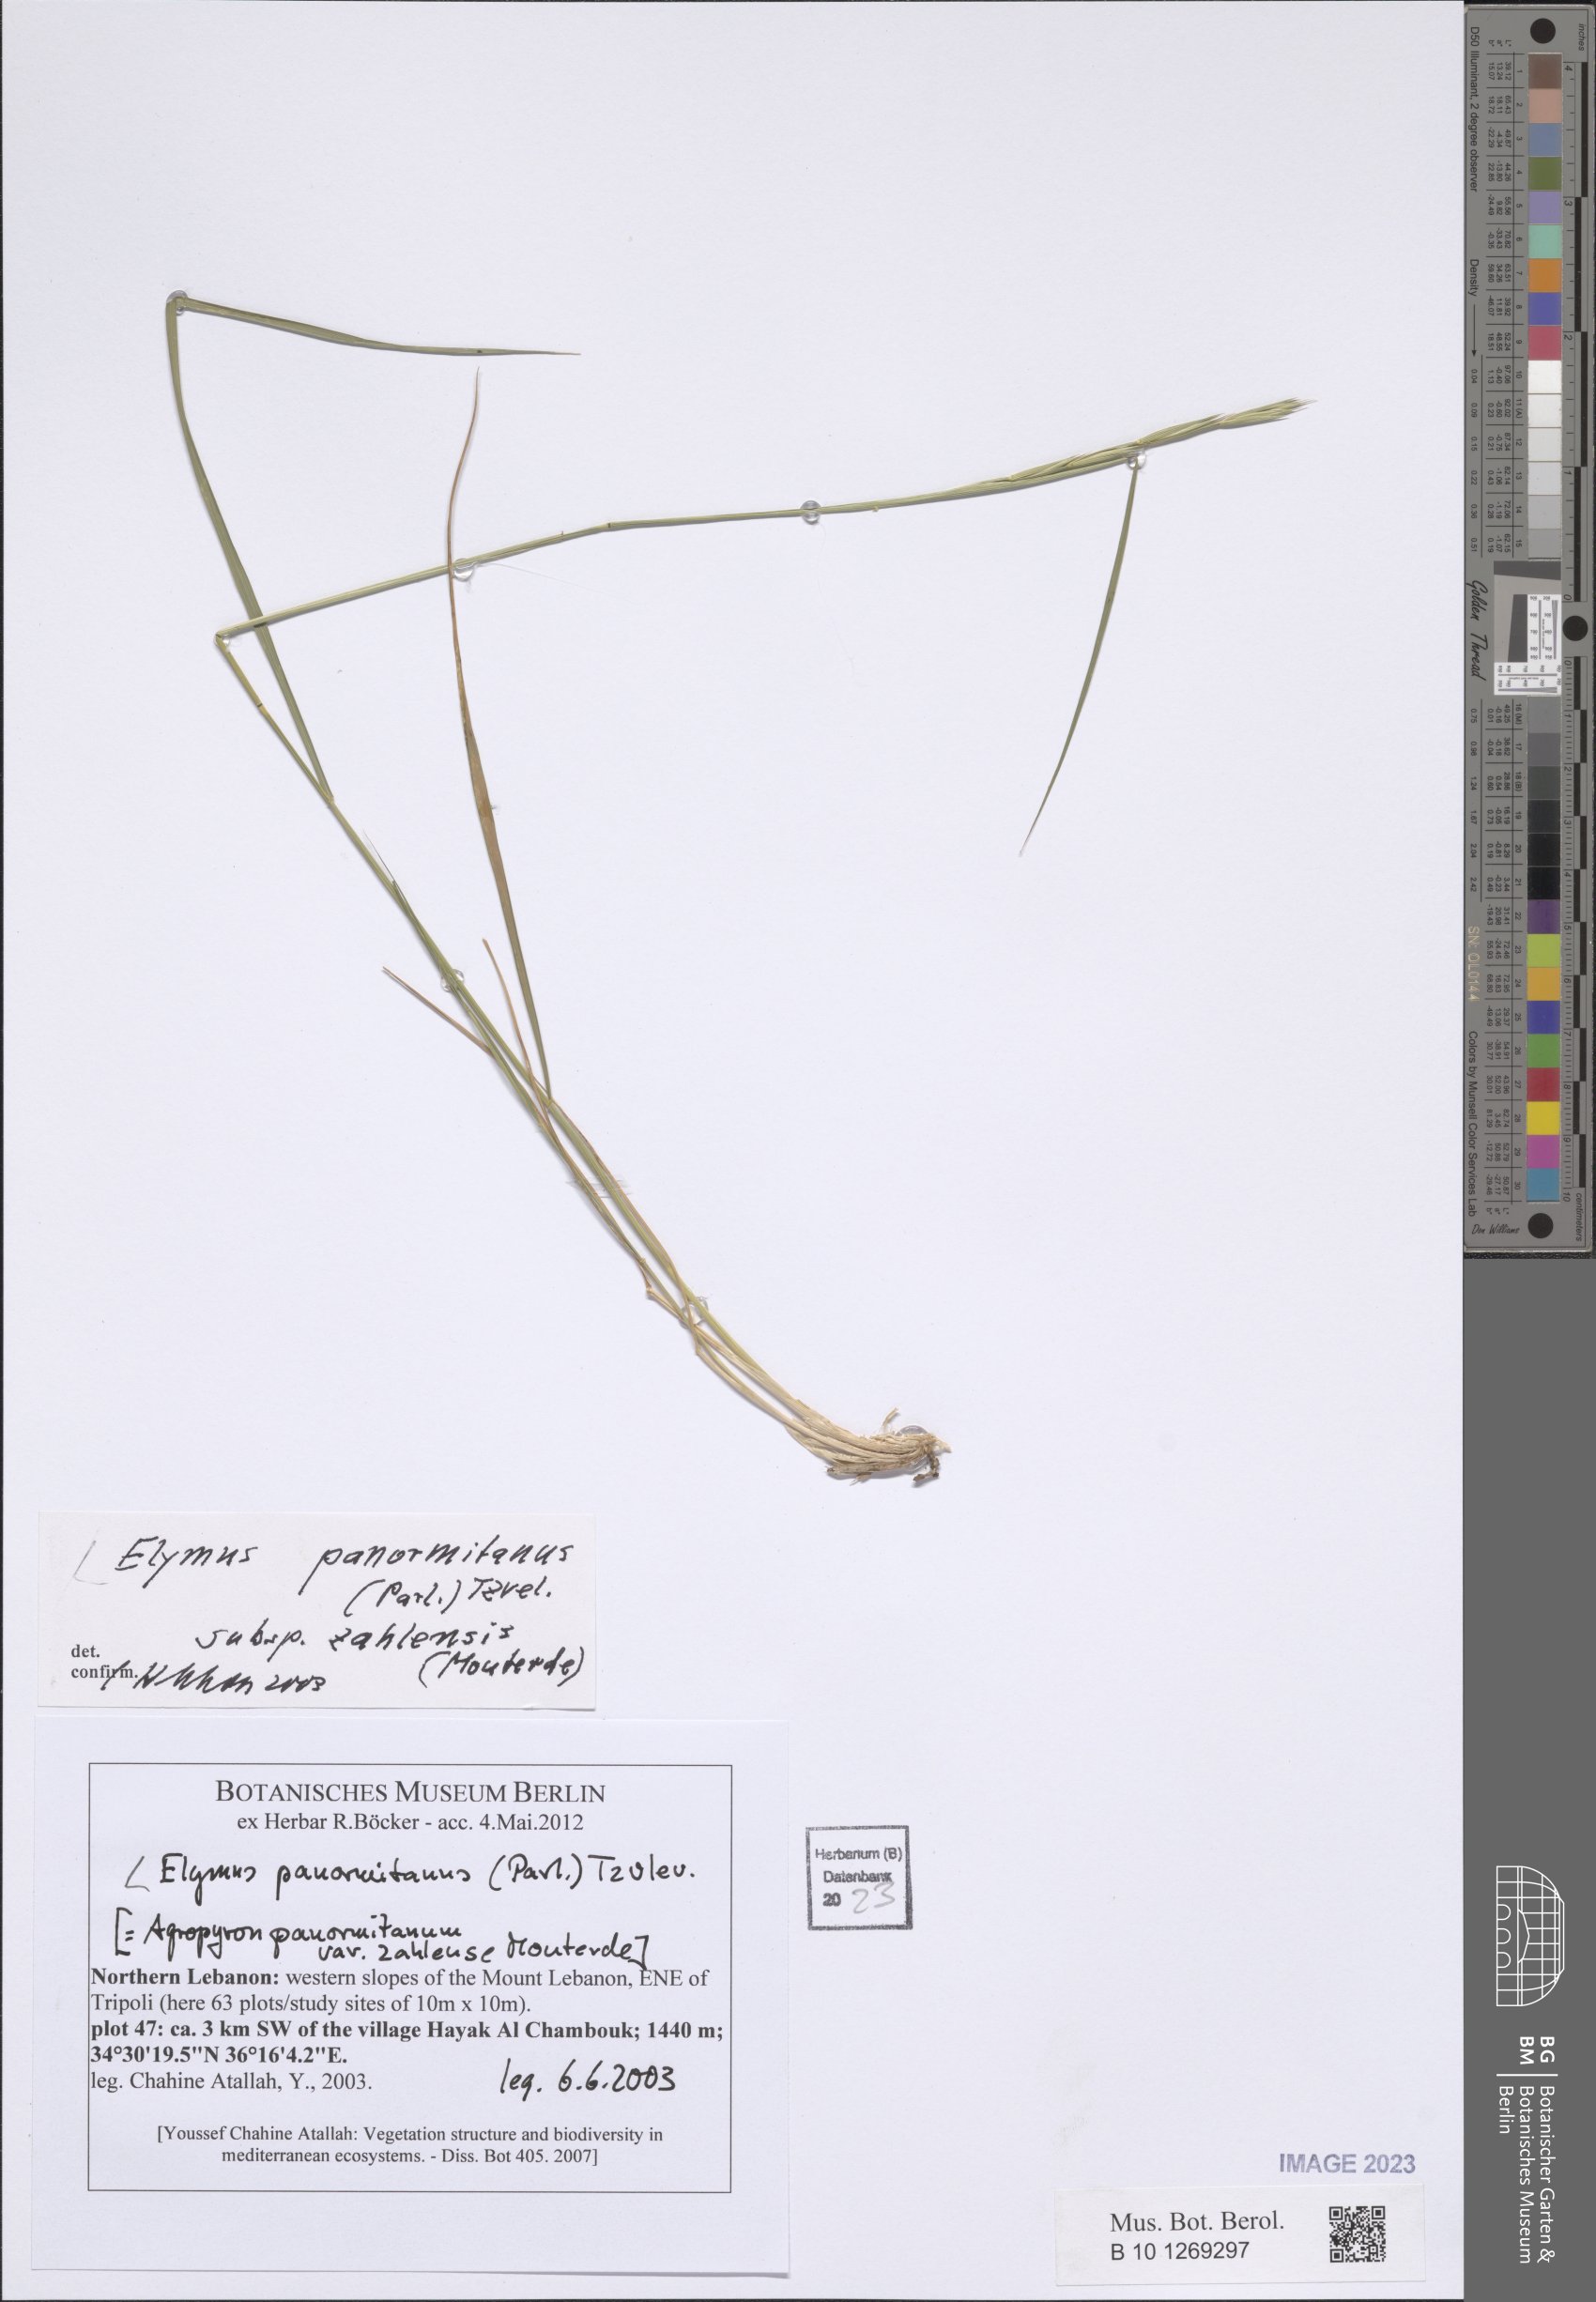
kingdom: Plantae
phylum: Tracheophyta
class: Liliopsida
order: Poales
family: Poaceae
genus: Elymus
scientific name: Elymus panormitanus
